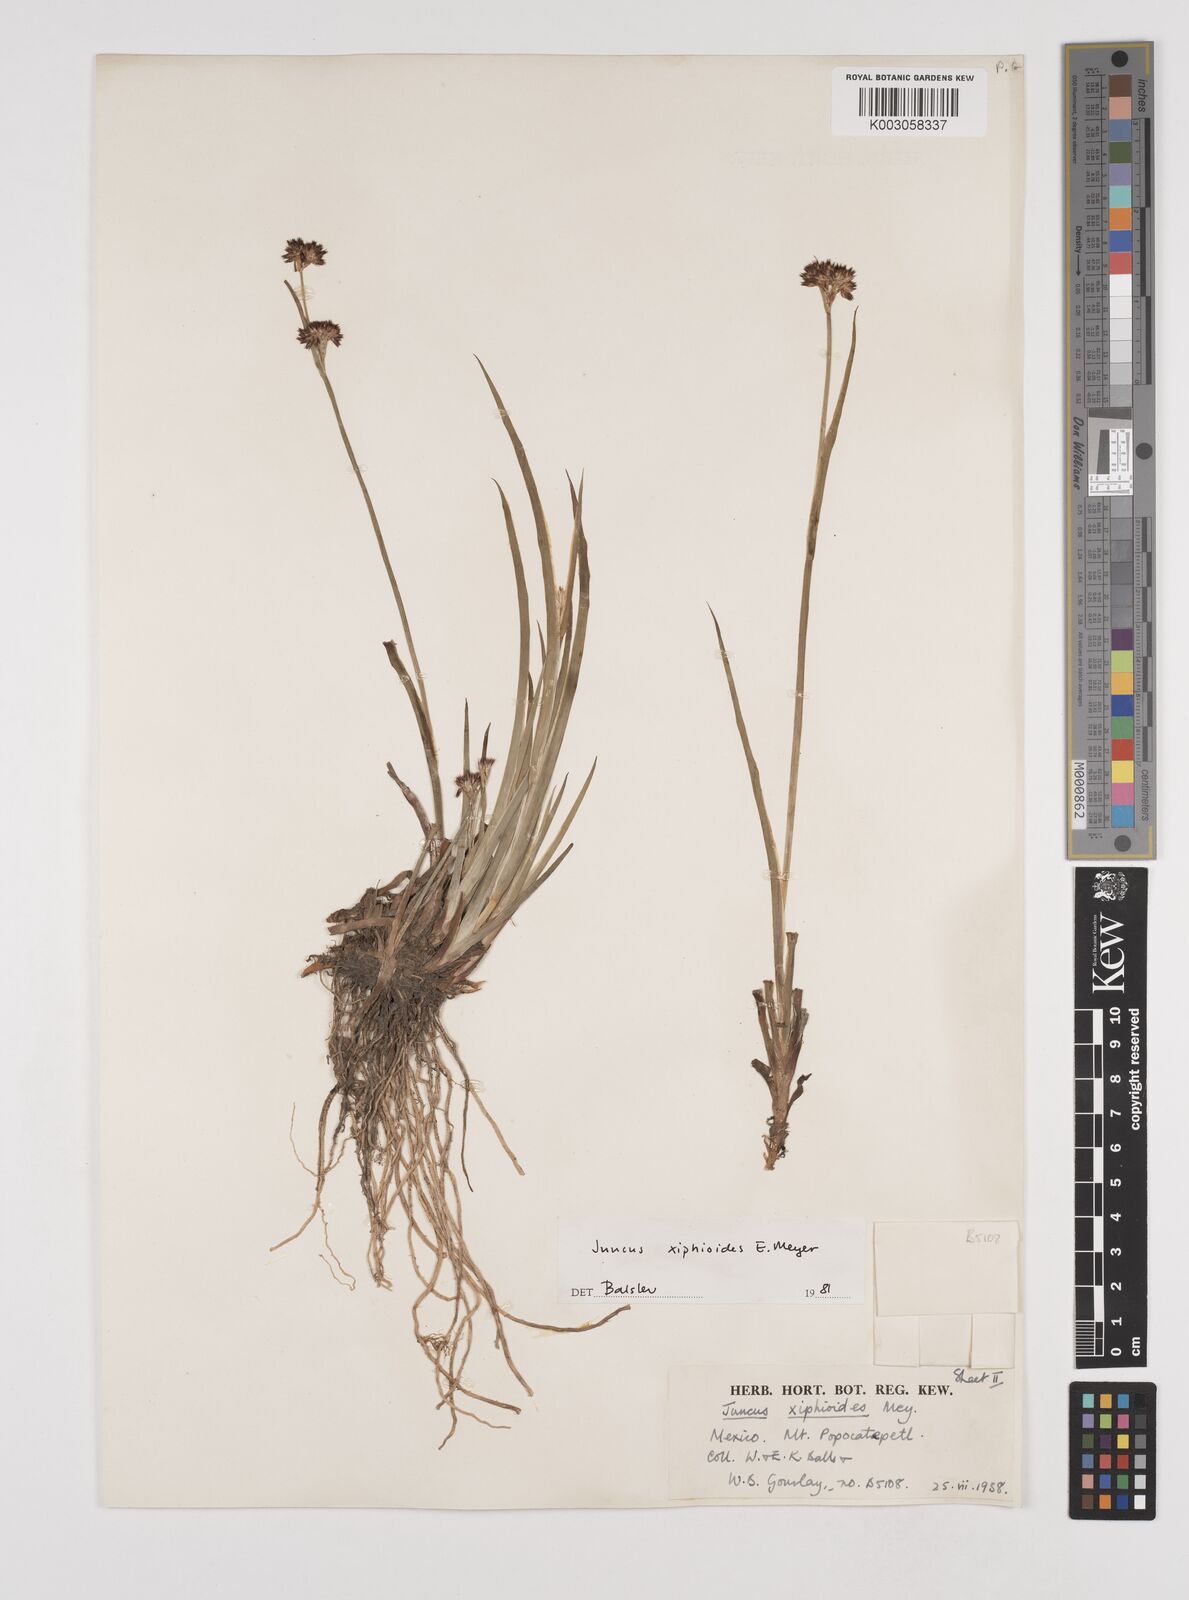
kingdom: Plantae
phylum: Tracheophyta
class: Liliopsida
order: Poales
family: Juncaceae
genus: Juncus
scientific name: Juncus xiphioides
